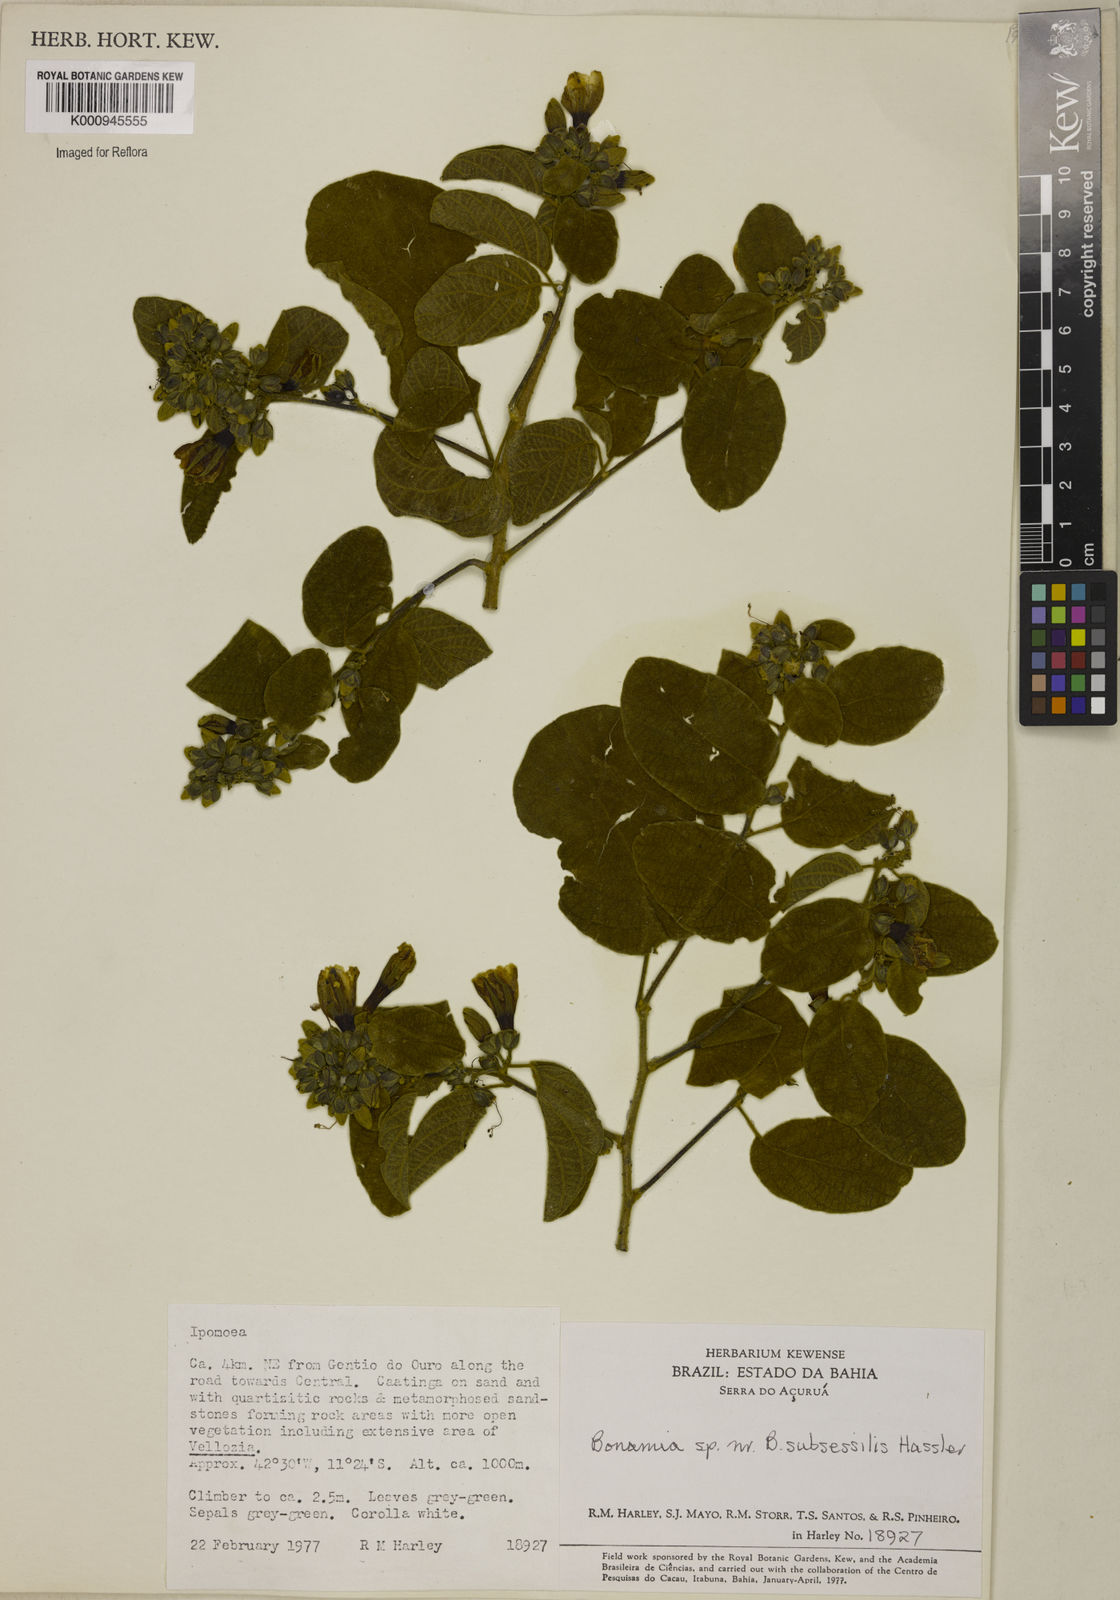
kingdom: Plantae
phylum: Tracheophyta
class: Magnoliopsida
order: Solanales
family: Convolvulaceae
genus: Bonamia
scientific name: Bonamia
